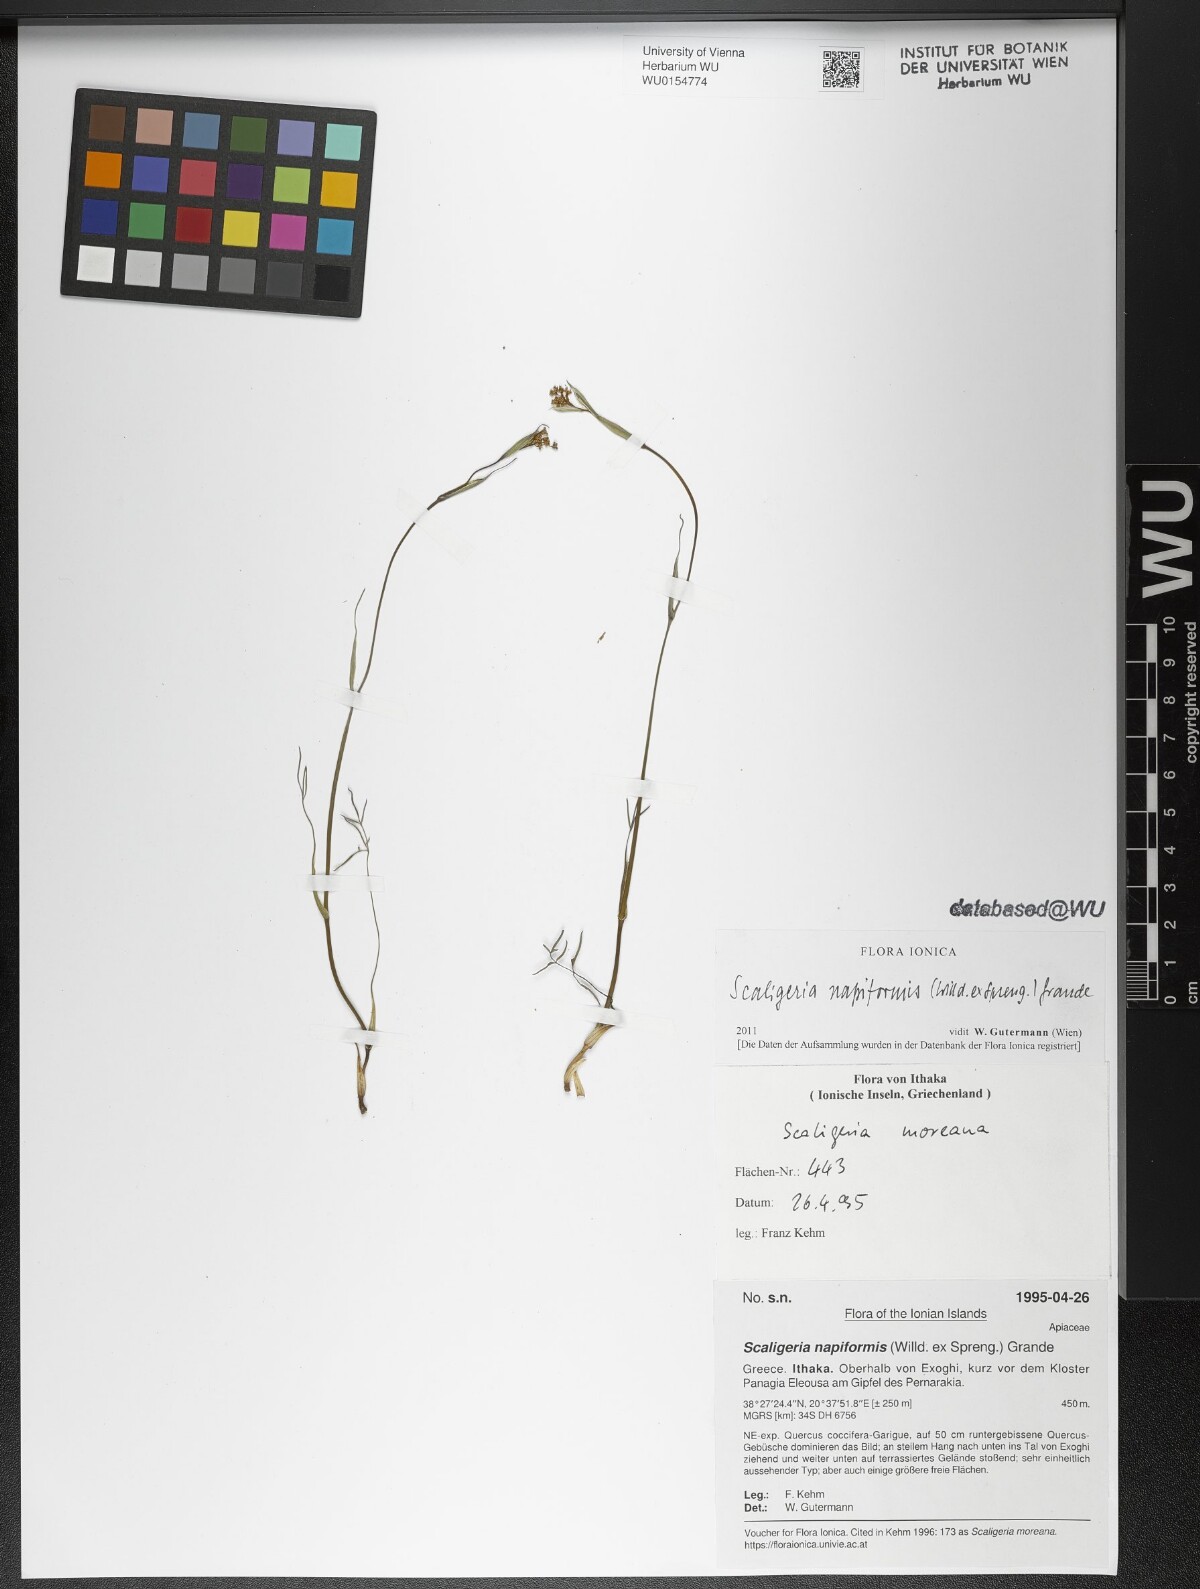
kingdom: Plantae
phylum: Tracheophyta
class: Magnoliopsida
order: Apiales
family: Apiaceae
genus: Scaligeria
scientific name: Scaligeria napiformis
